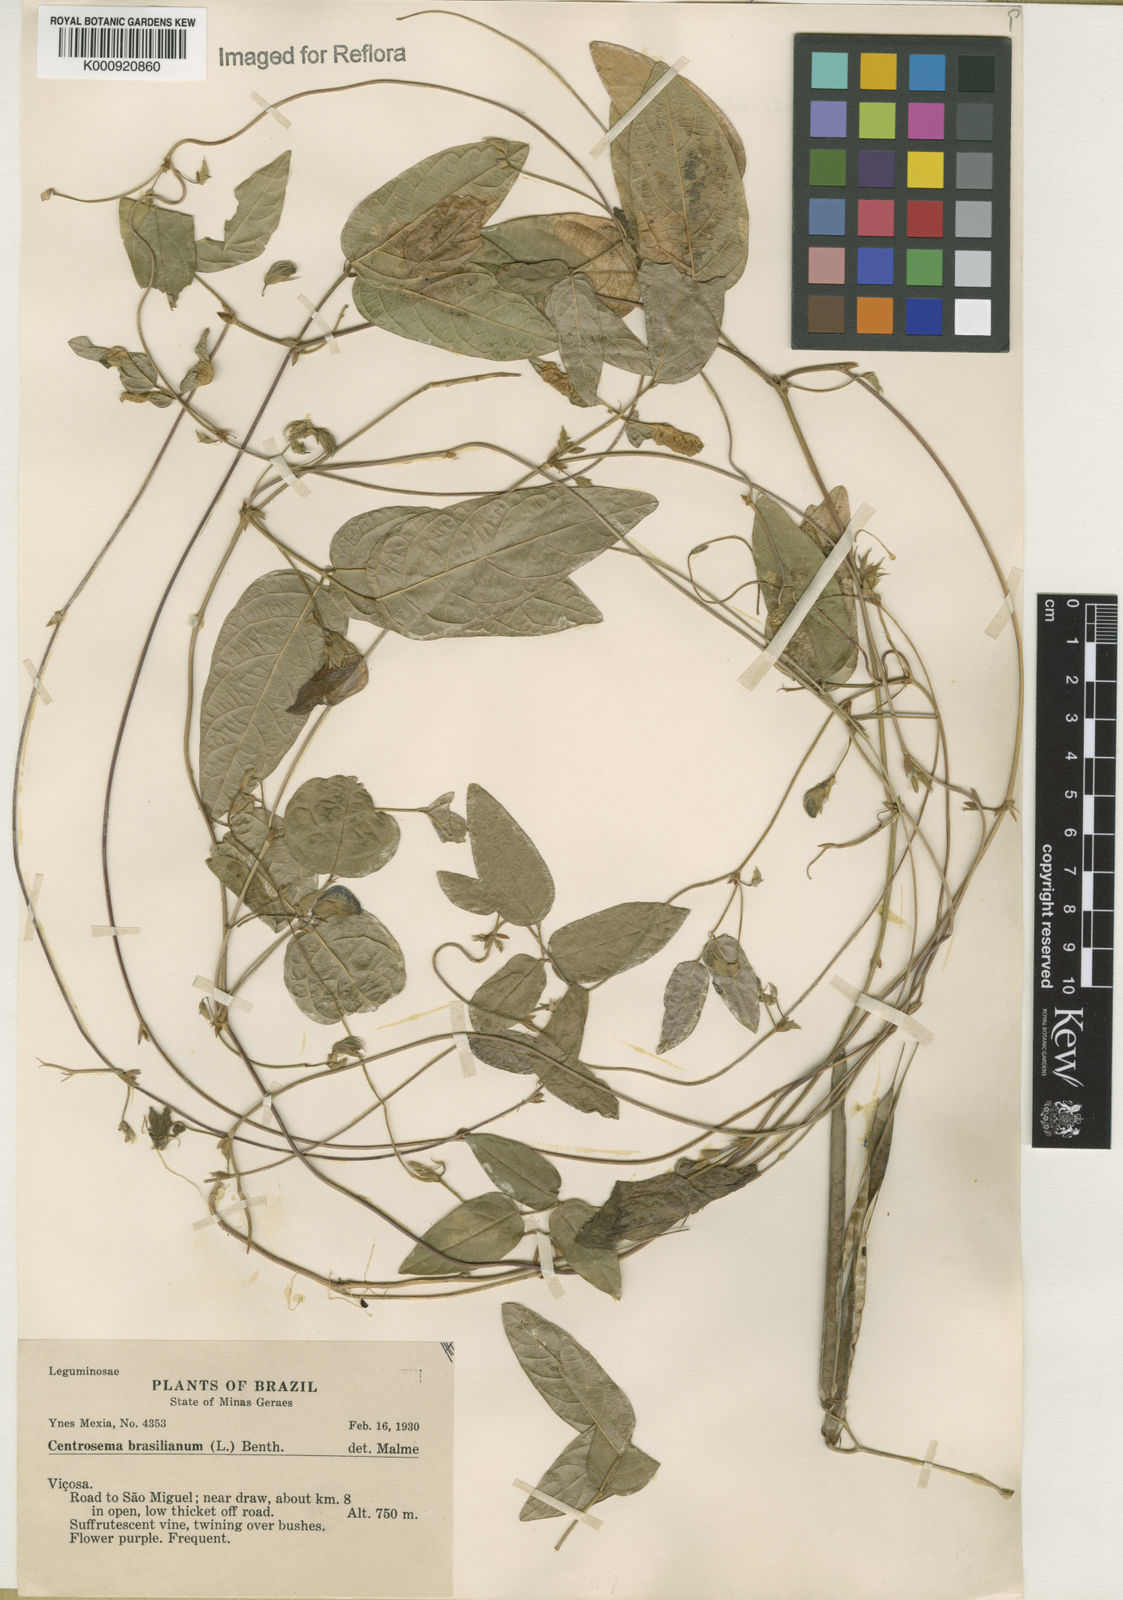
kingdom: Plantae
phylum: Tracheophyta
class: Magnoliopsida
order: Fabales
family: Fabaceae
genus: Centrosema
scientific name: Centrosema virginianum
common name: Butterfly-pea
